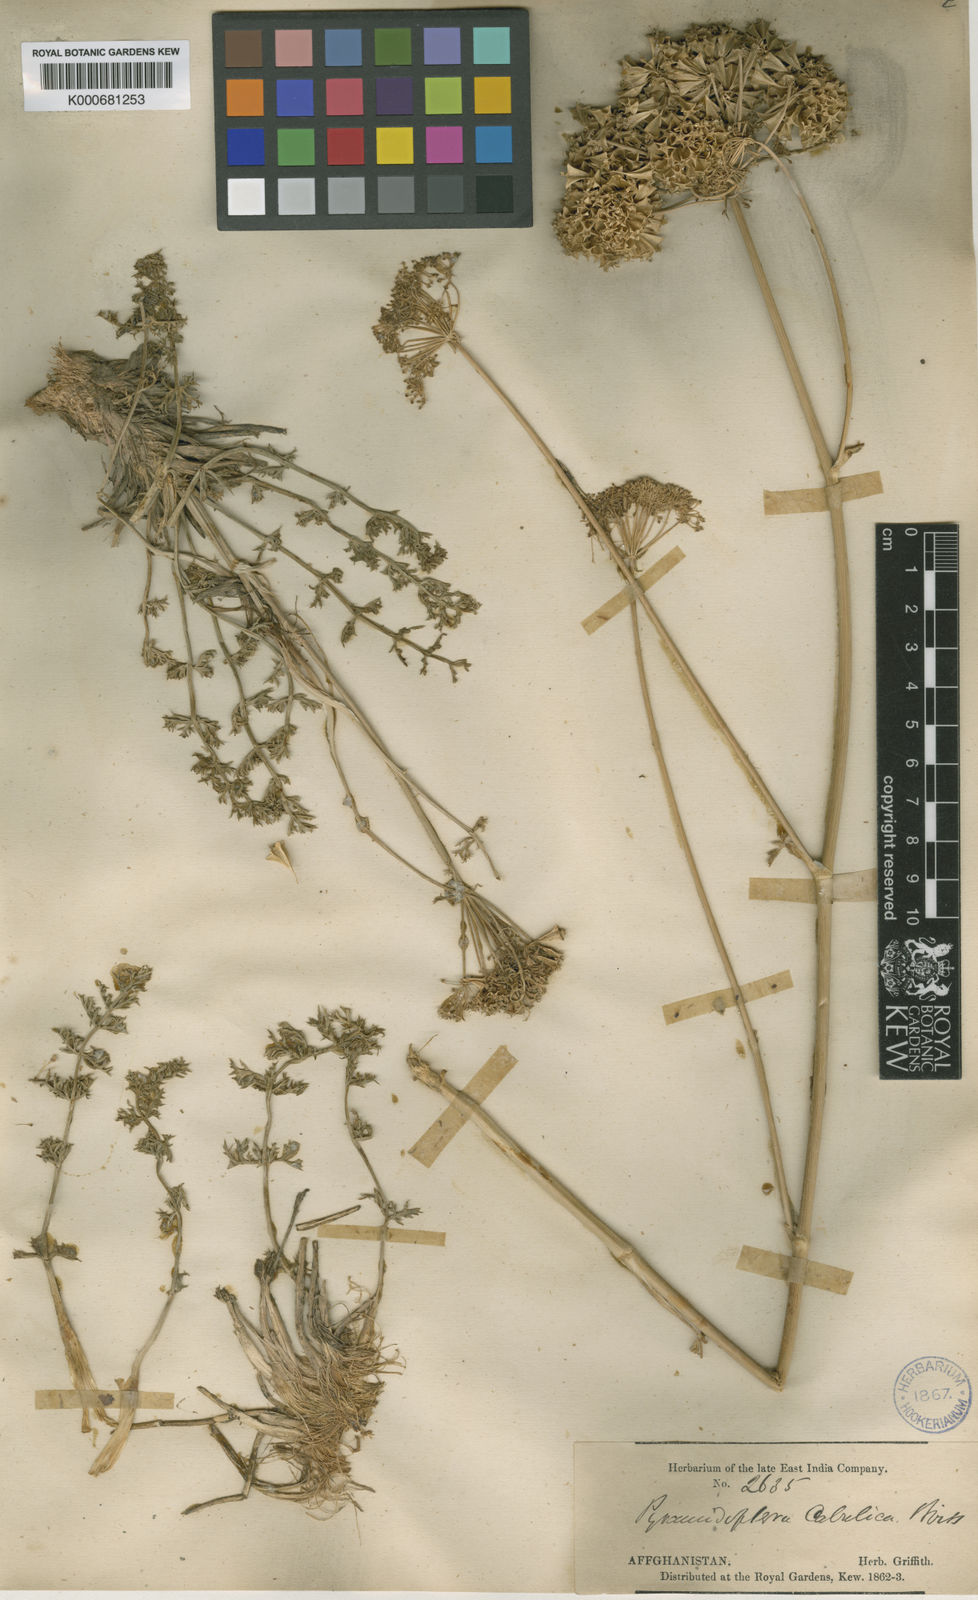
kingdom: Plantae
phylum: Tracheophyta
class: Magnoliopsida
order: Apiales
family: Apiaceae
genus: Pyramidoptera
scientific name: Pyramidoptera cabulica
